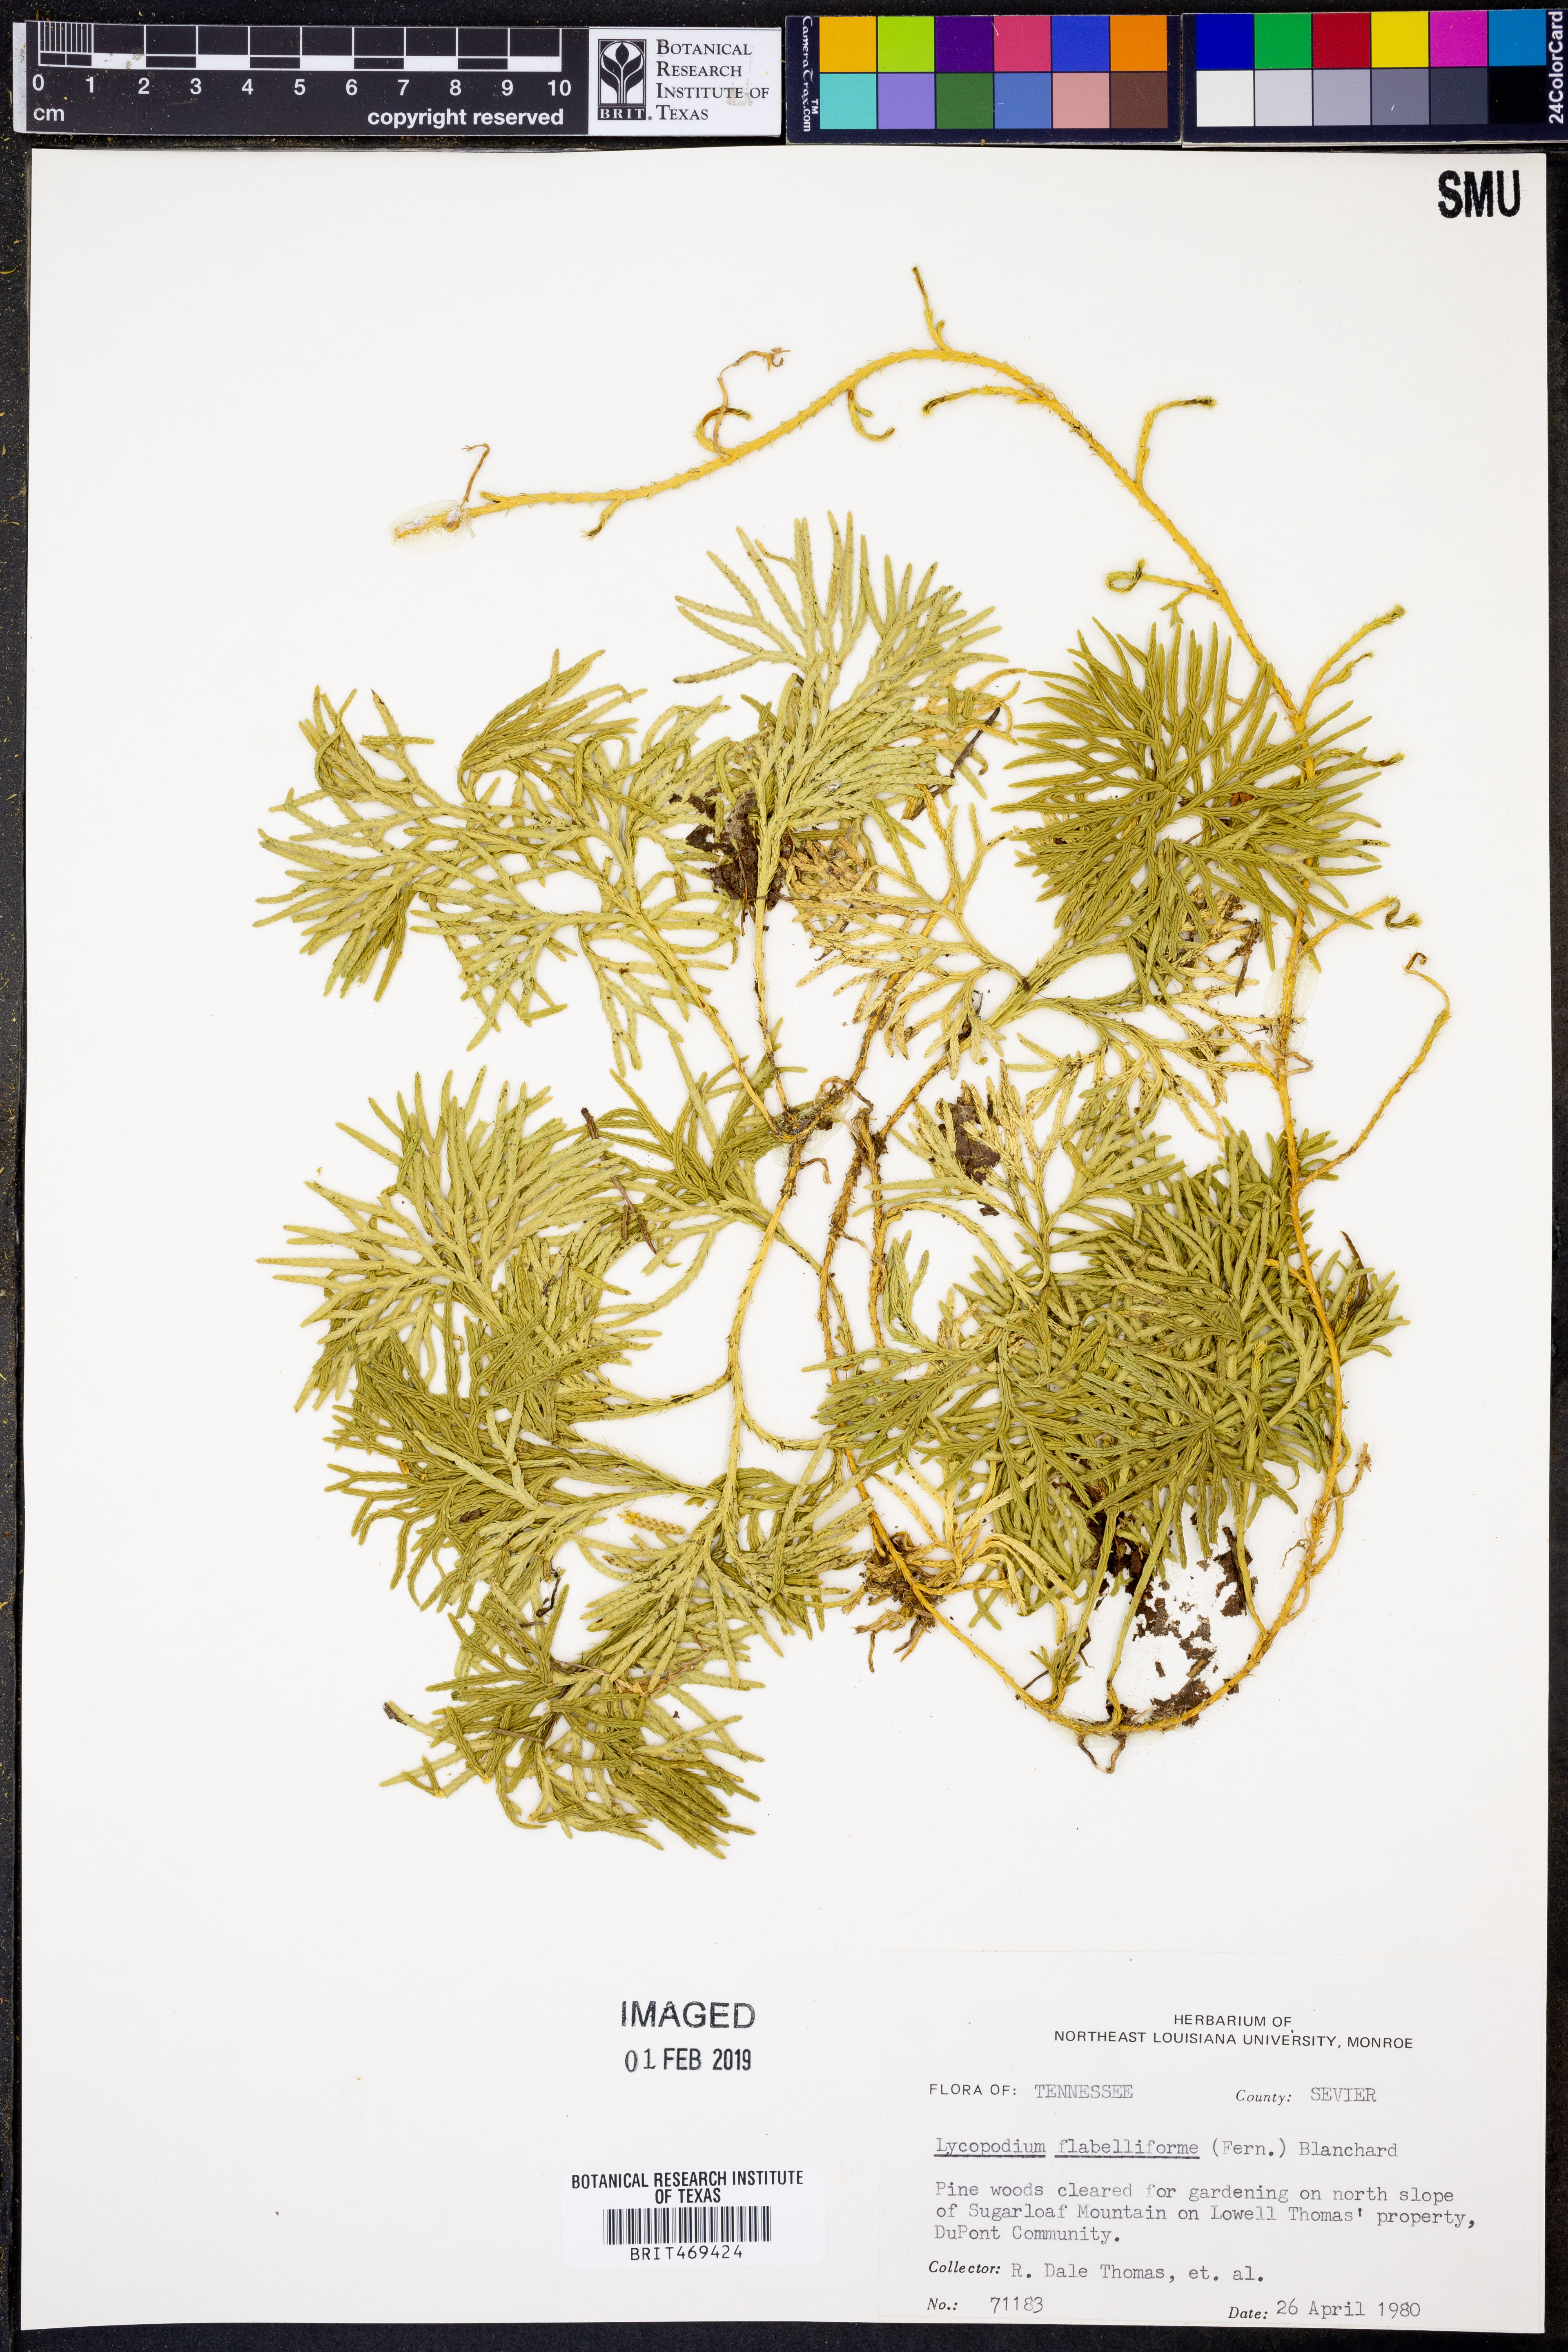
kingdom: Plantae
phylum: Tracheophyta
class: Lycopodiopsida
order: Lycopodiales
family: Lycopodiaceae
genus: Diphasiastrum
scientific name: Diphasiastrum digitatum
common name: Southern running-pine
